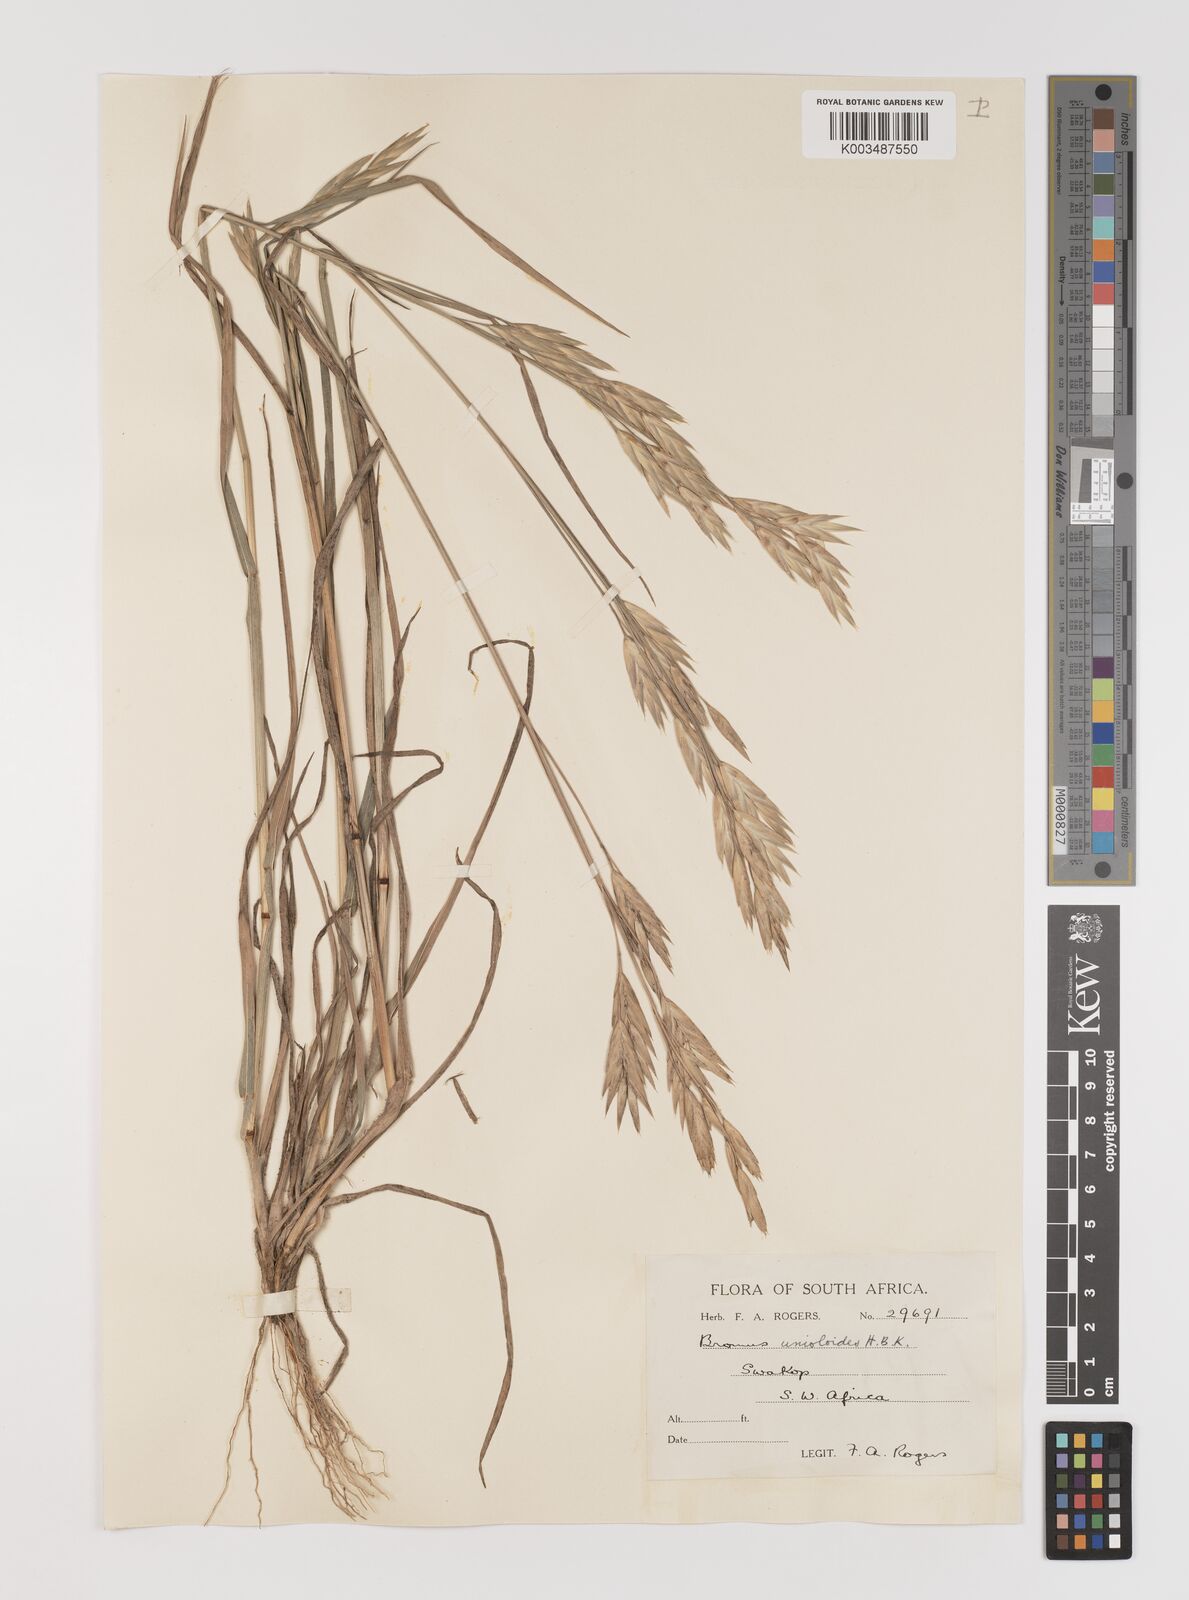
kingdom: Plantae
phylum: Tracheophyta
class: Liliopsida
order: Poales
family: Poaceae
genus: Bromus
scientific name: Bromus catharticus
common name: Rescuegrass
